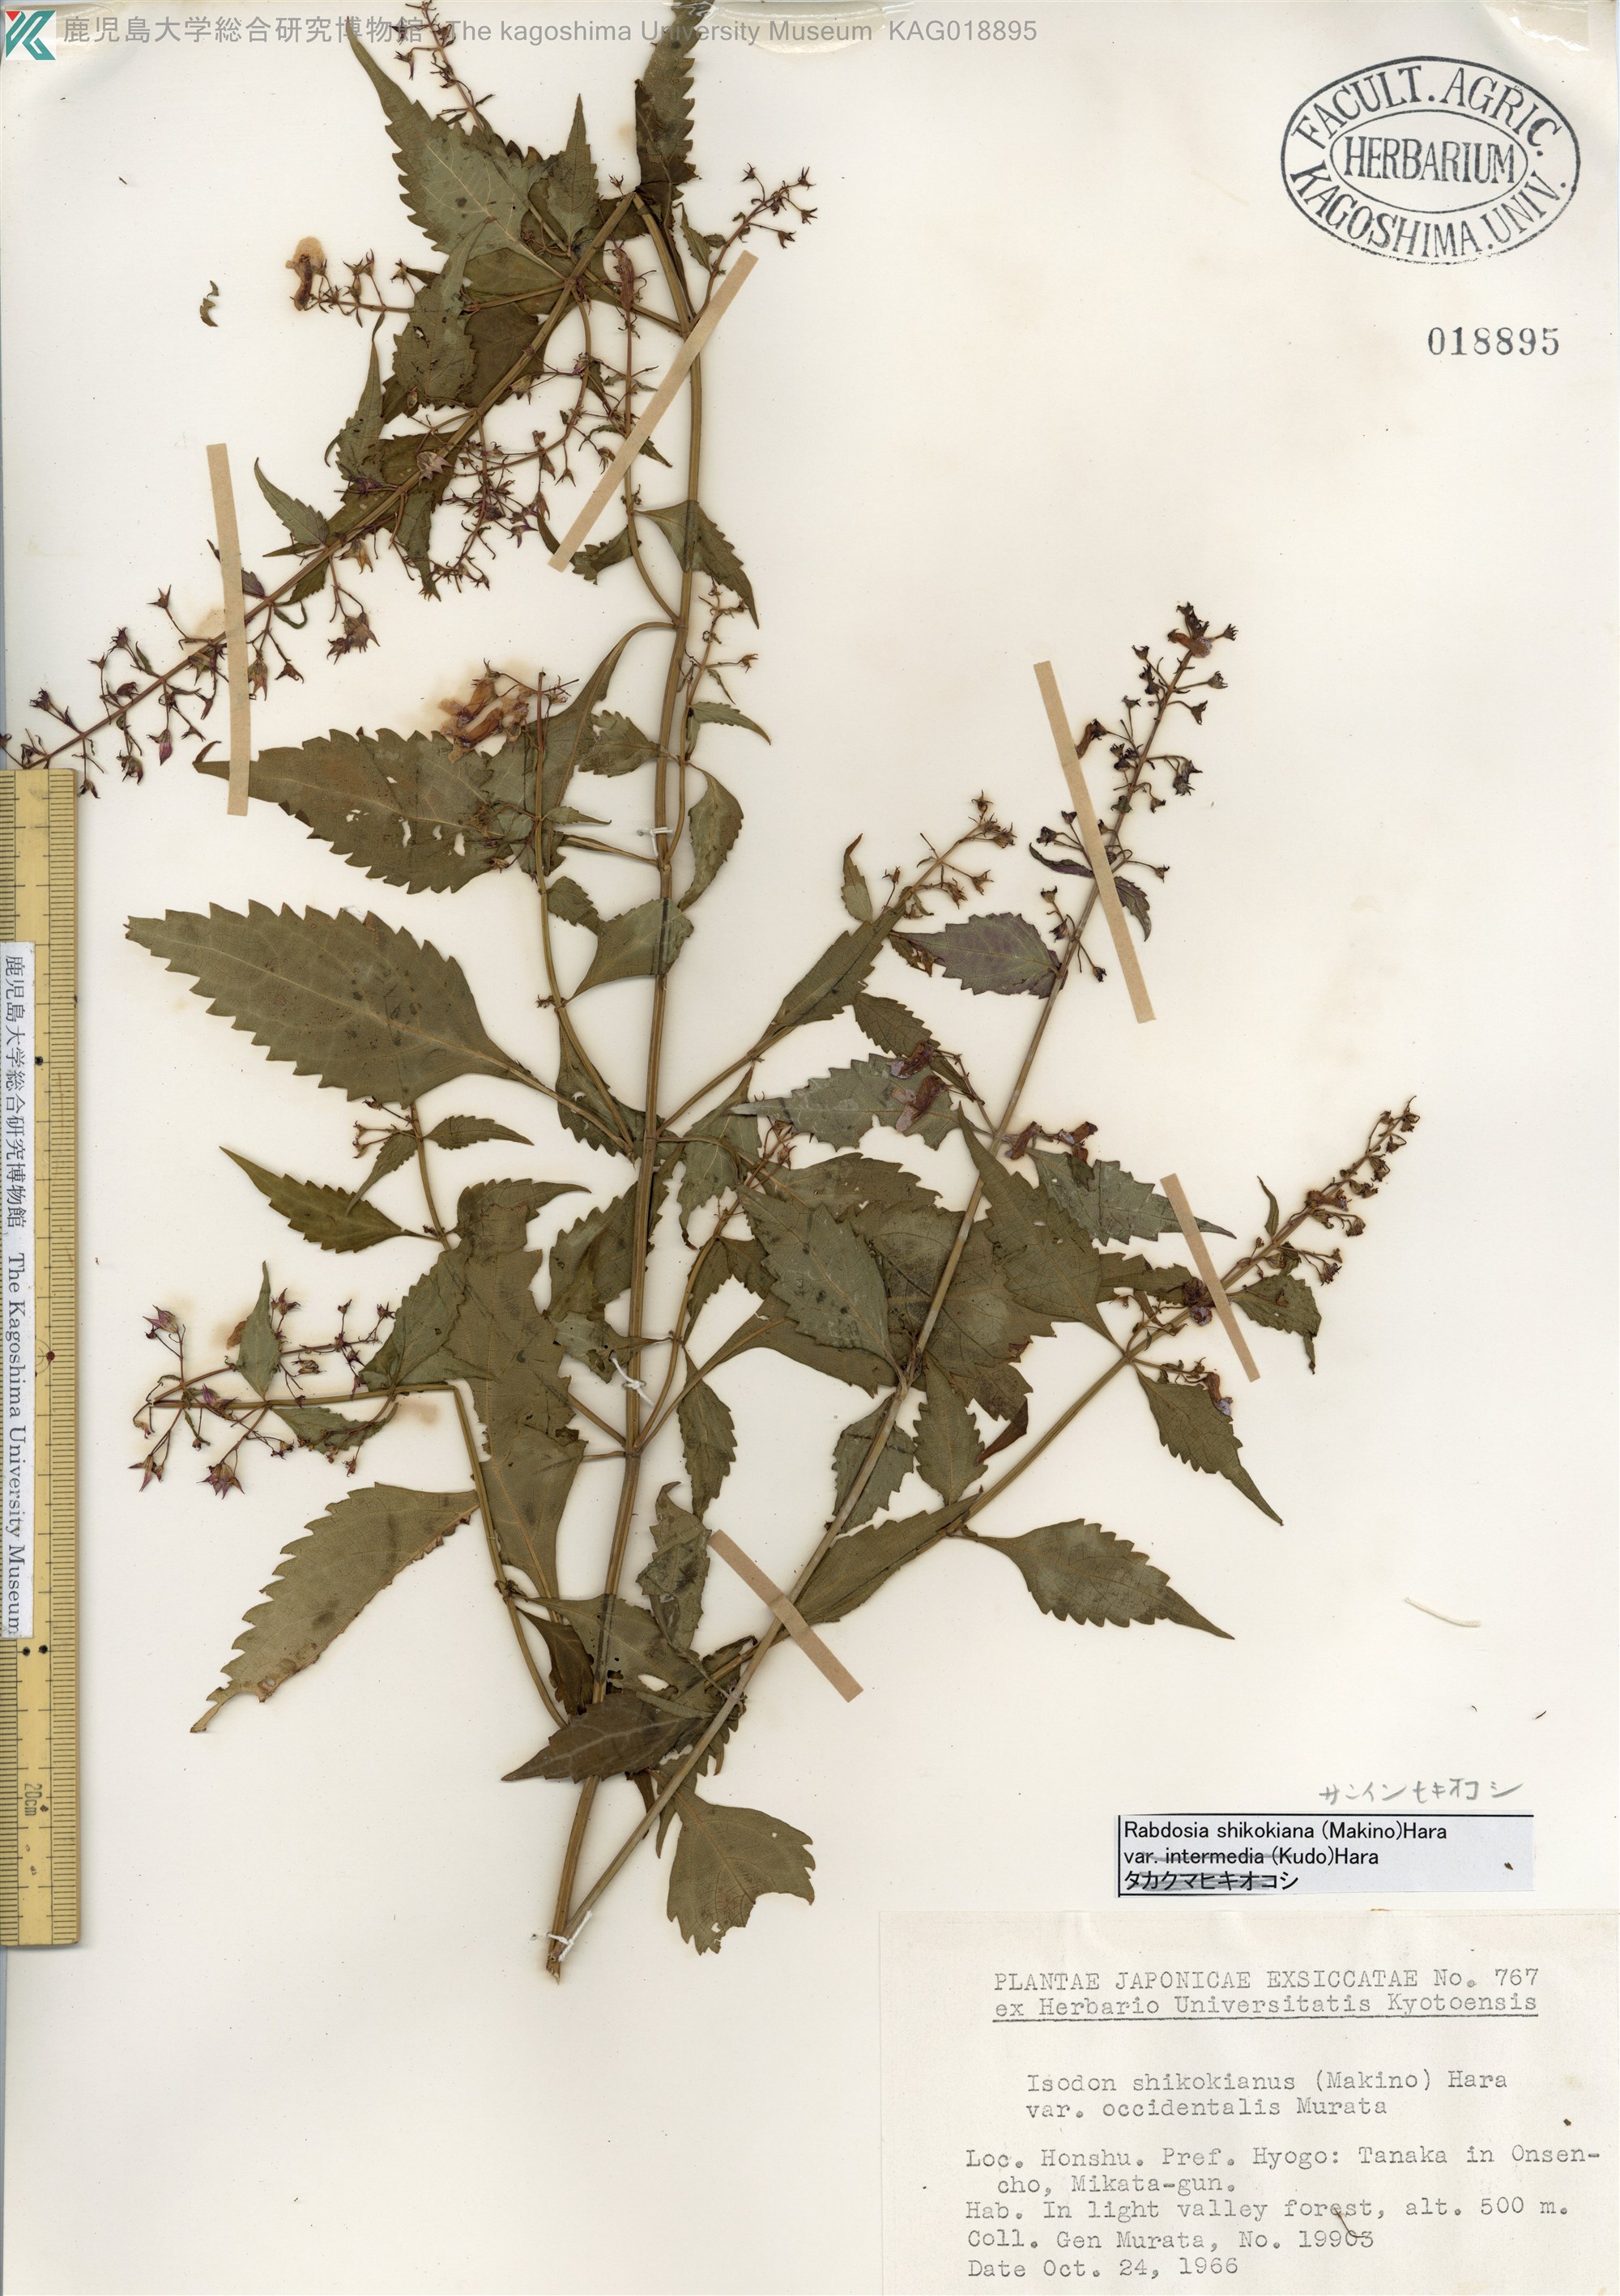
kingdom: Plantae
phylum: Tracheophyta
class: Magnoliopsida
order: Lamiales
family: Lamiaceae
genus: Isodon
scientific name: Isodon shikokianus
